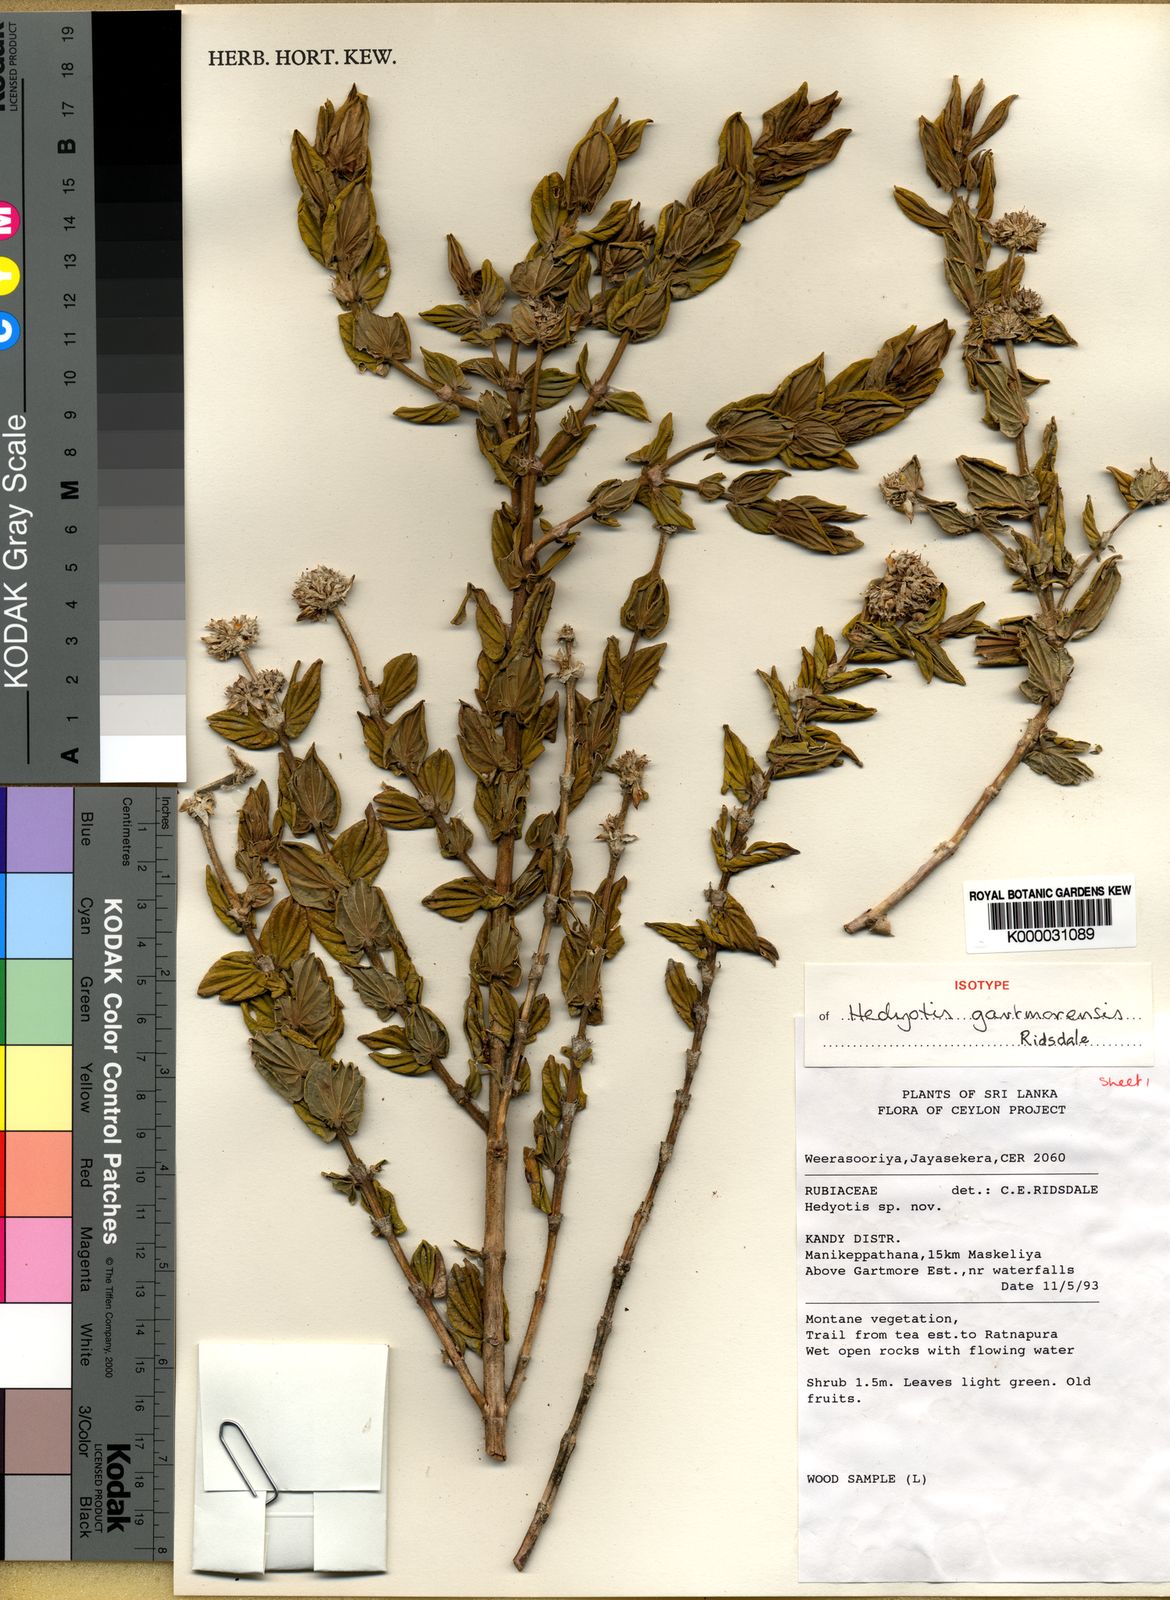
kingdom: Plantae
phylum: Tracheophyta
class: Magnoliopsida
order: Gentianales
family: Rubiaceae
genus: Hedyotis
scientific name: Hedyotis gartmorensis
